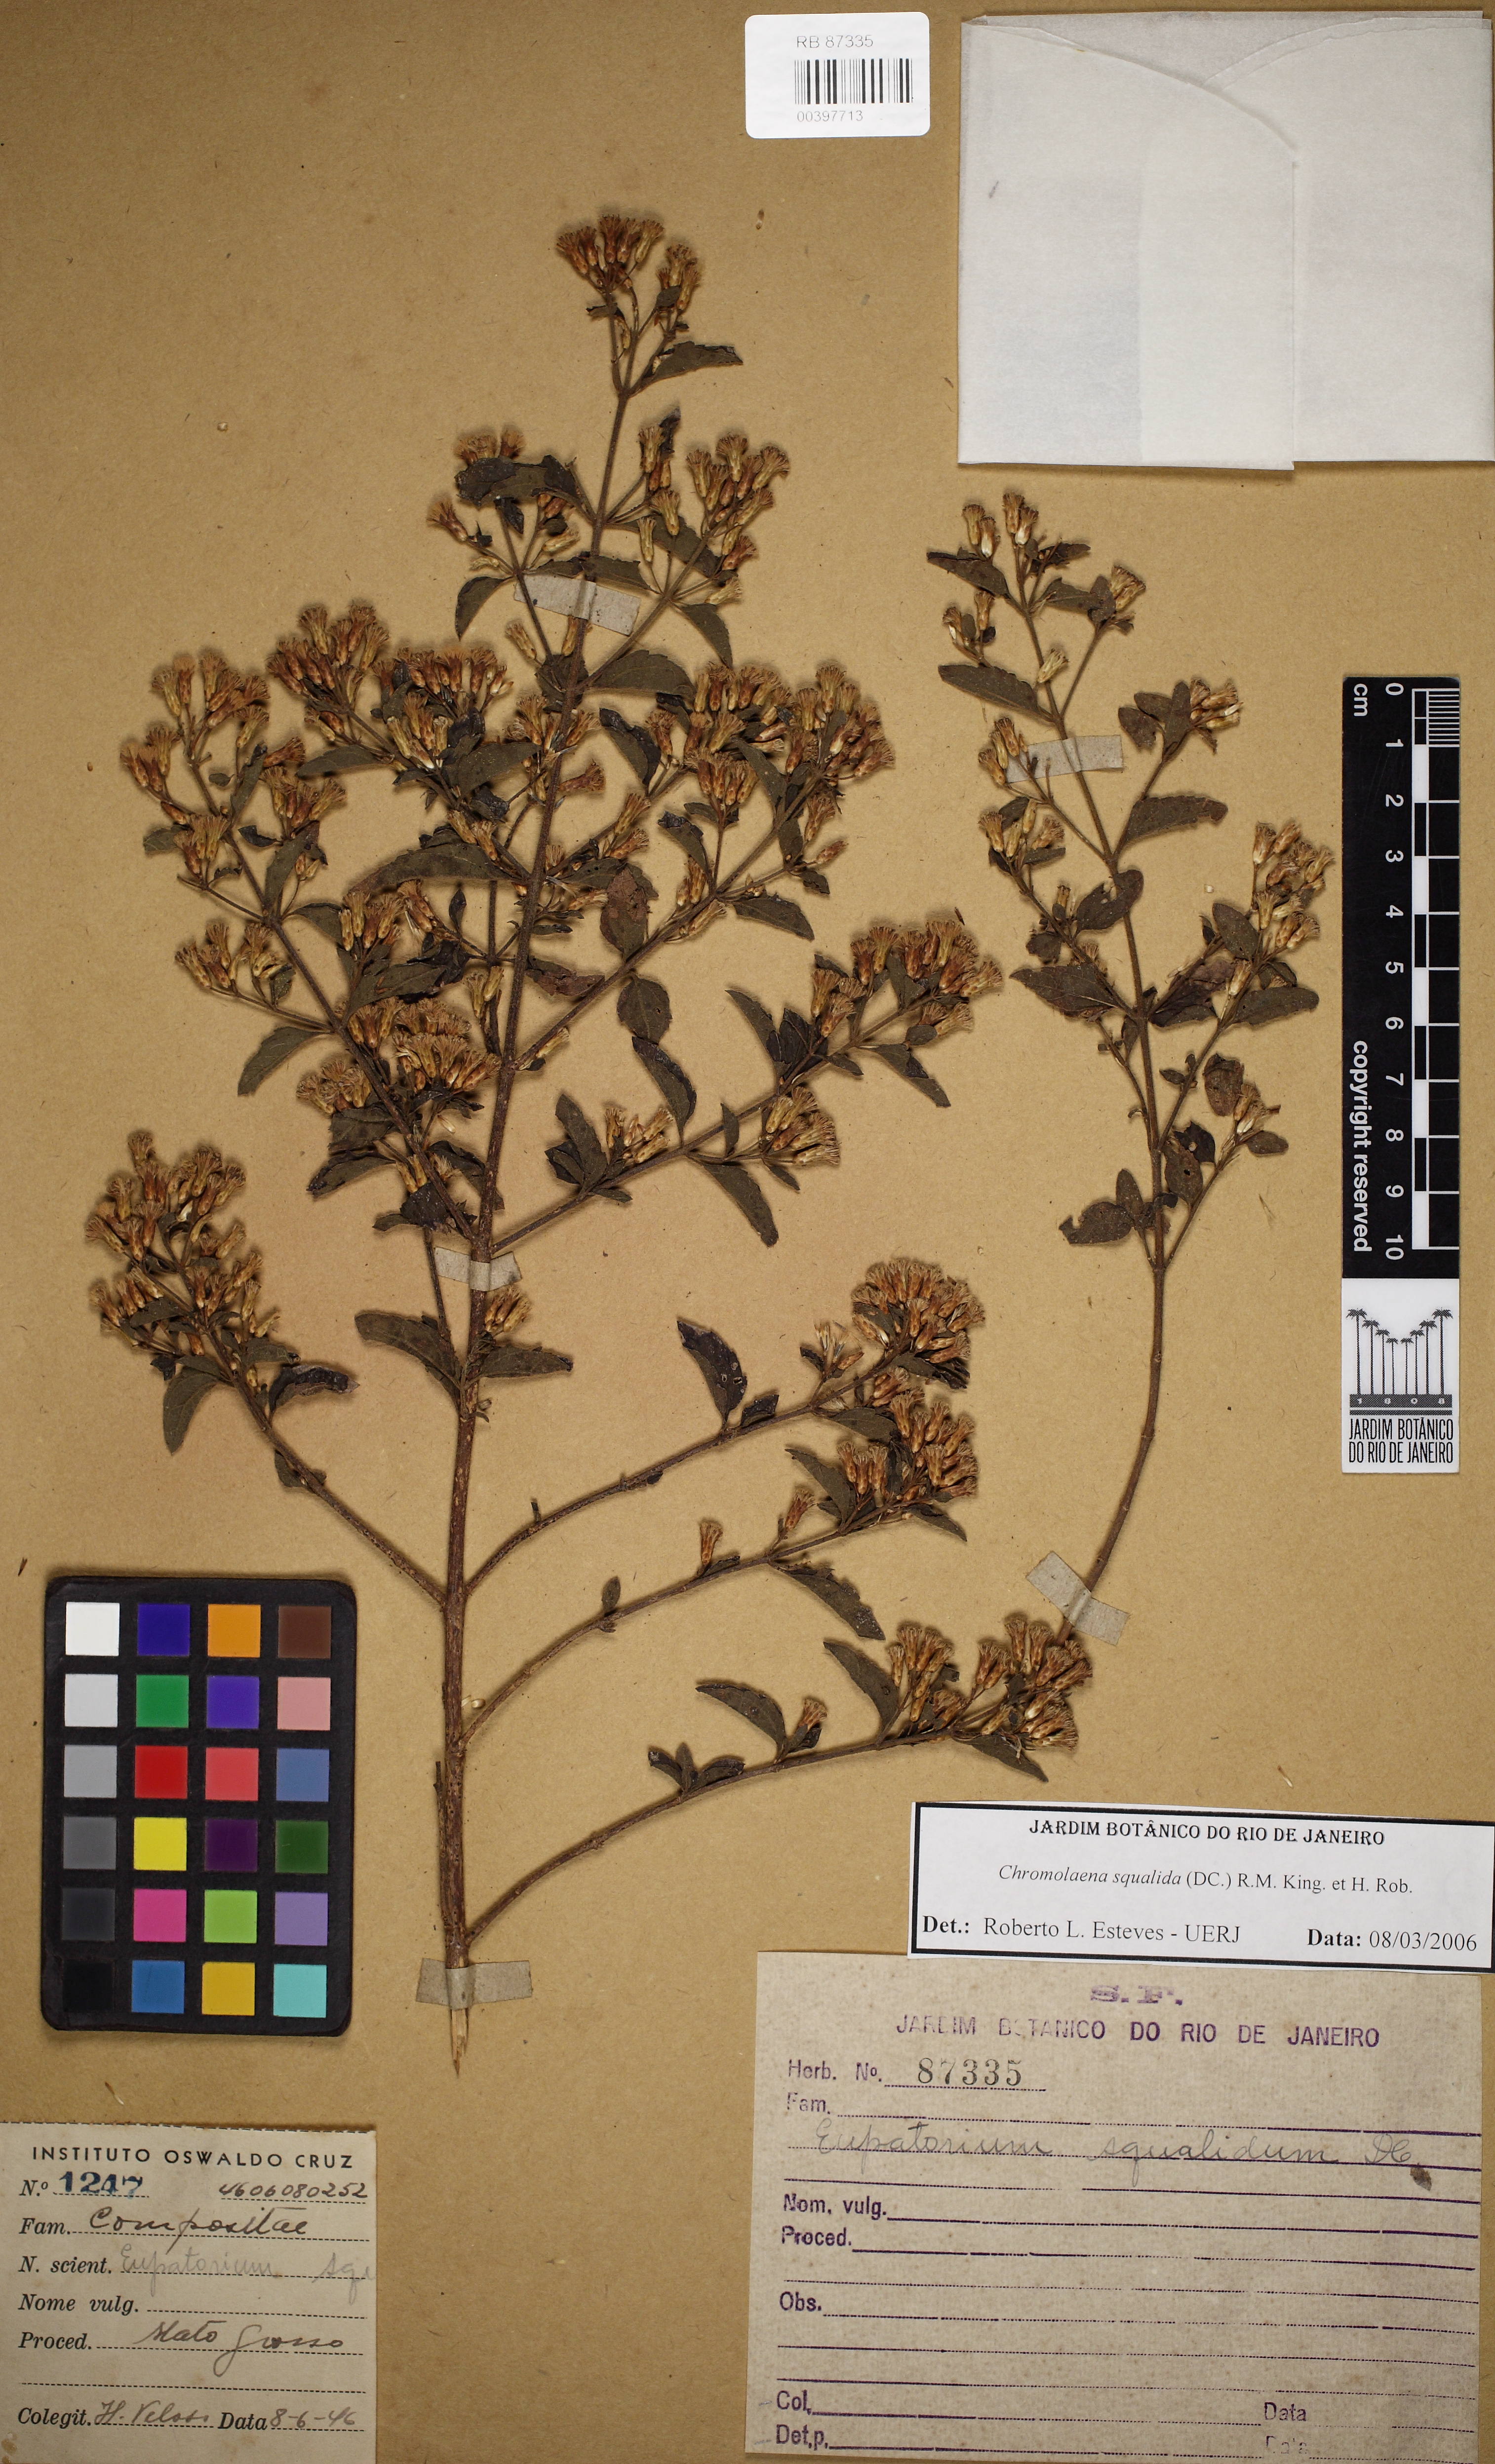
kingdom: Plantae
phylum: Tracheophyta
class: Magnoliopsida
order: Asterales
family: Asteraceae
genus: Chromolaena
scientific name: Chromolaena squalida
